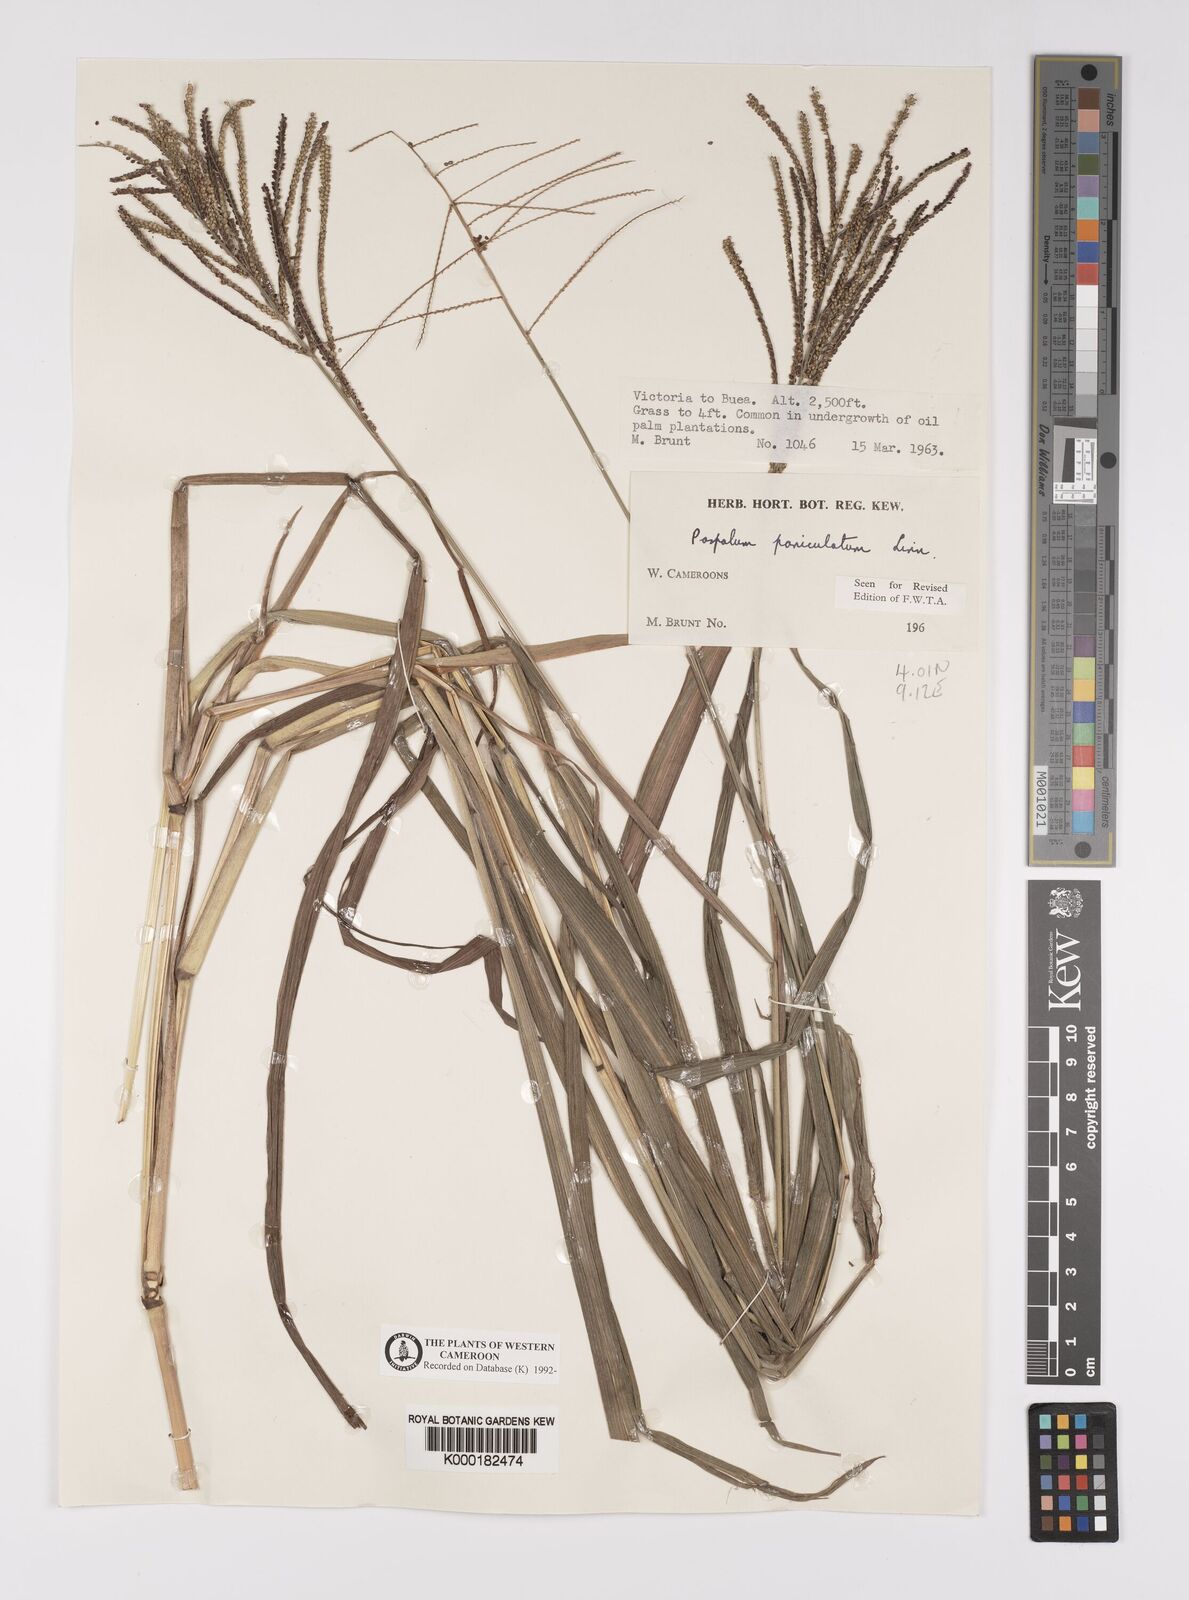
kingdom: Plantae
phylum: Tracheophyta
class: Liliopsida
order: Poales
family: Poaceae
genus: Paspalum
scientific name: Paspalum paniculatum
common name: Arrocillo
